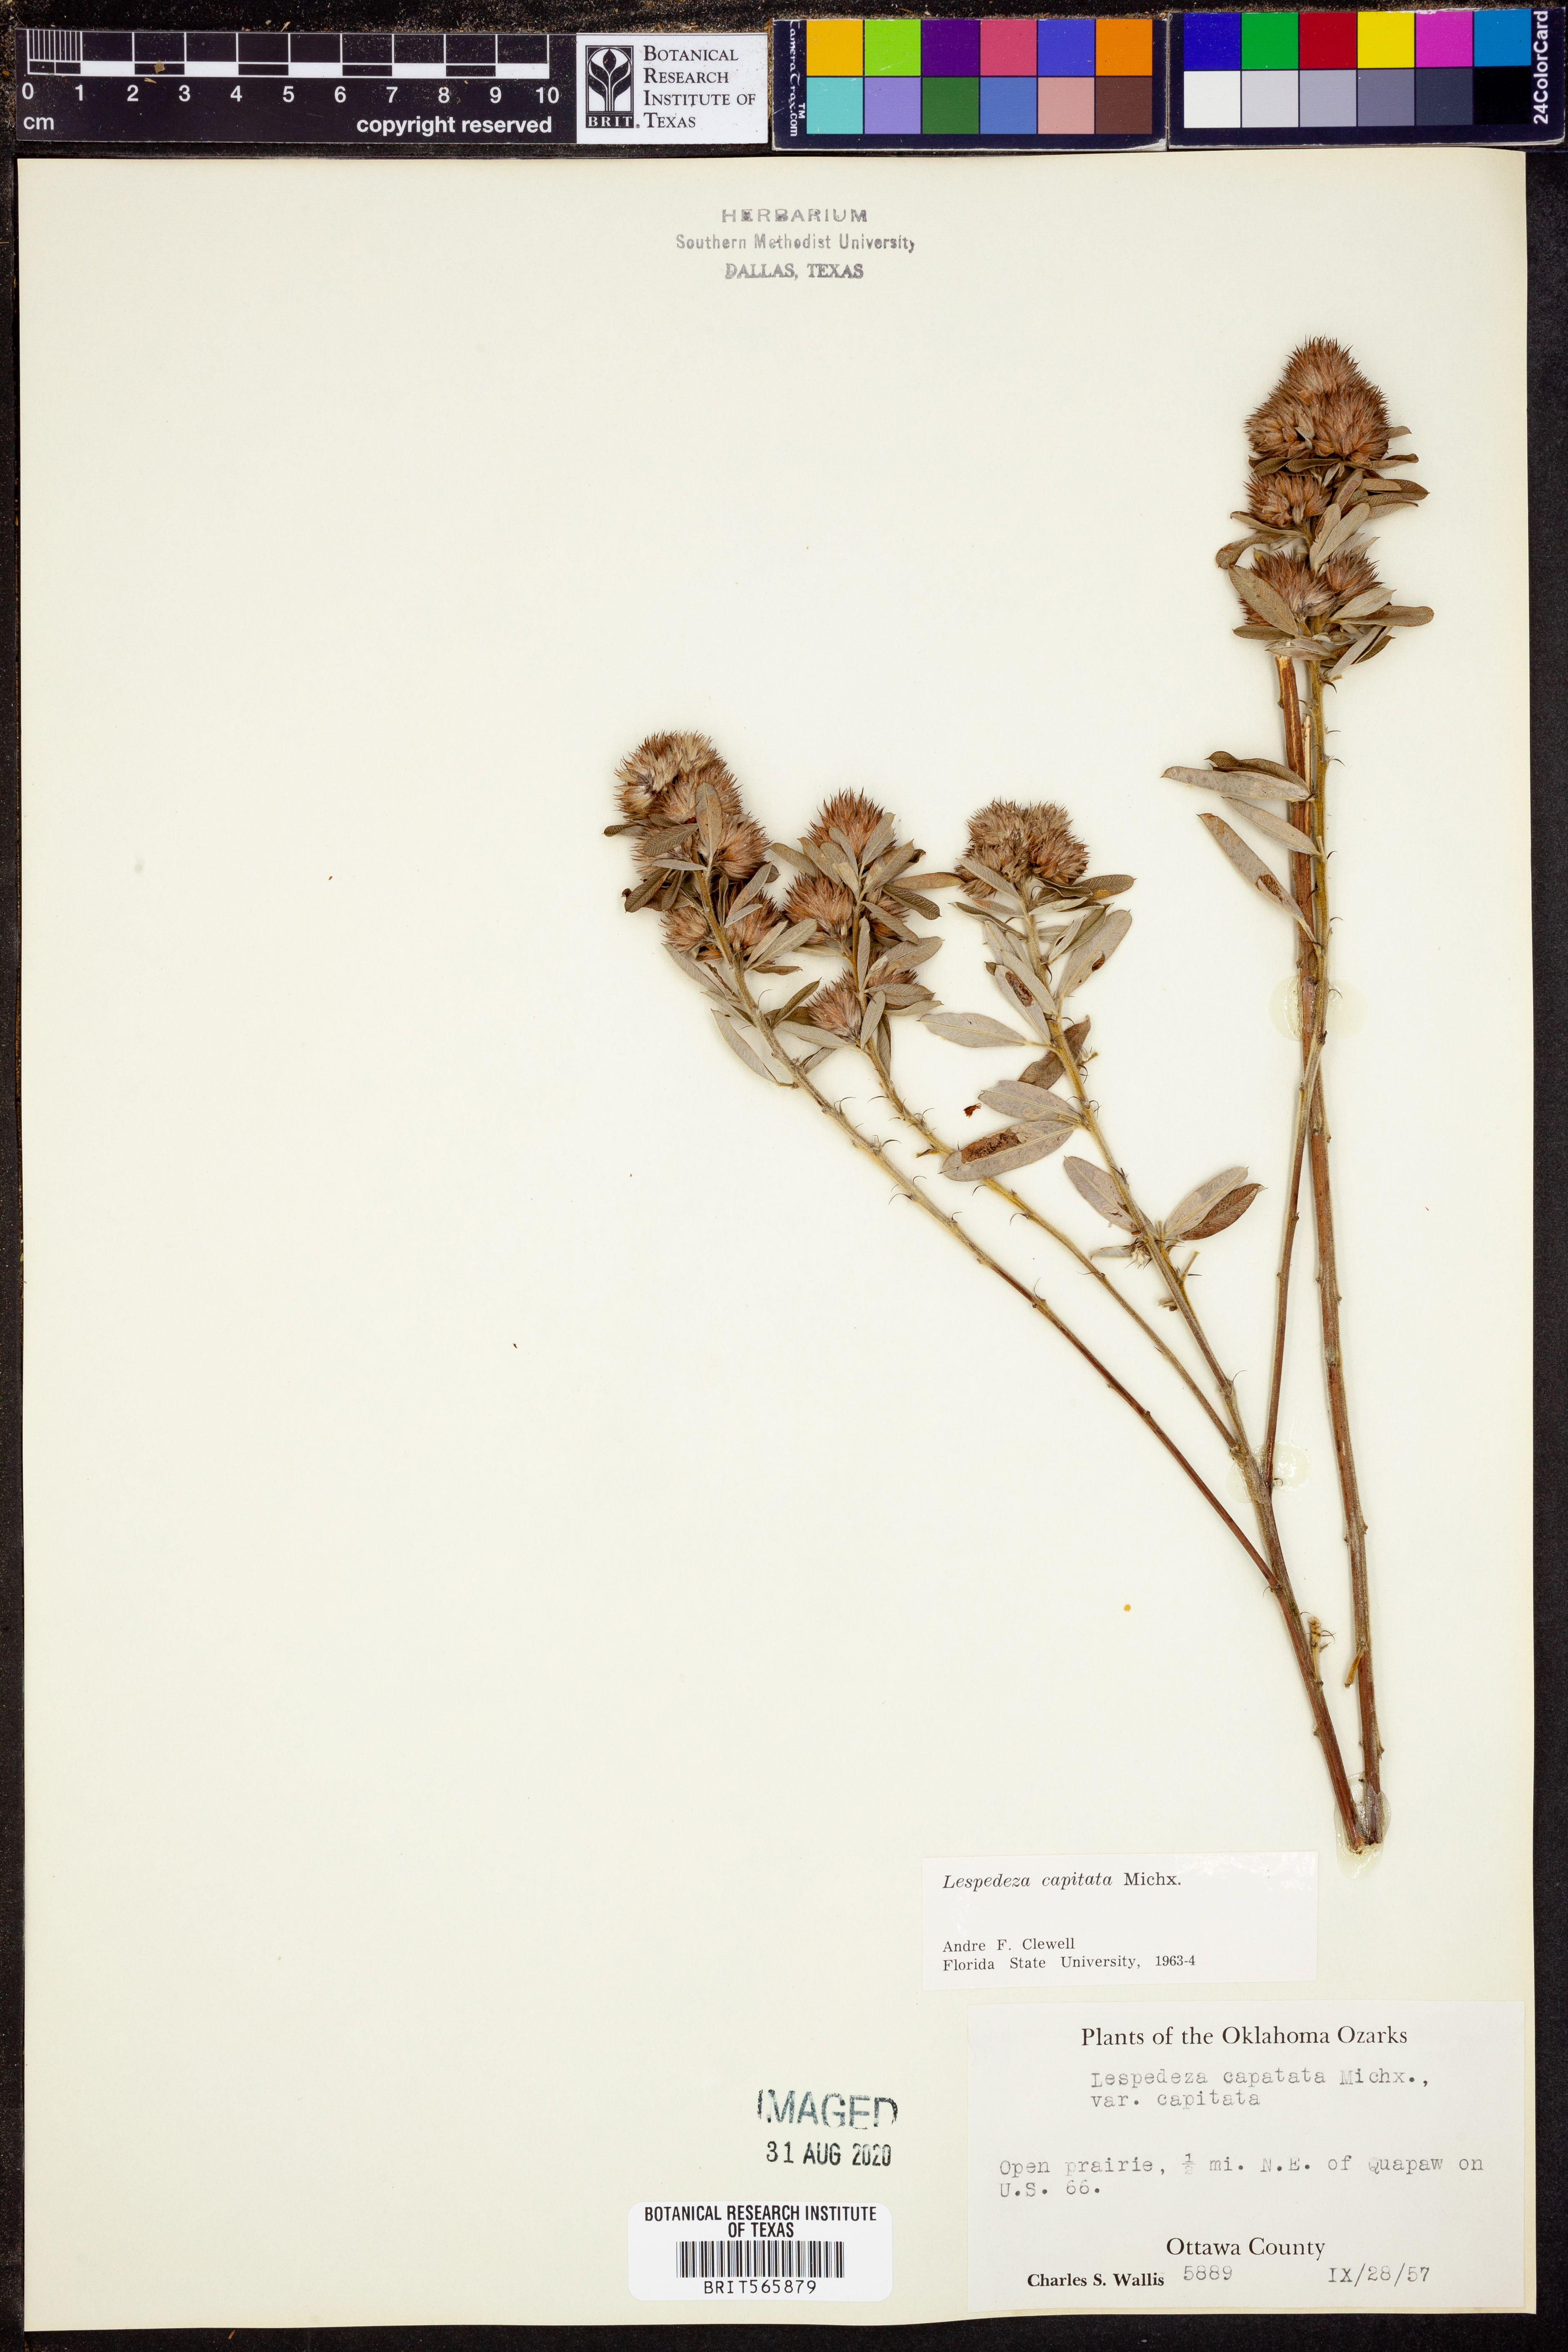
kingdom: Plantae
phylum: Tracheophyta
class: Magnoliopsida
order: Fabales
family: Fabaceae
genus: Lespedeza
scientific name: Lespedeza capitata
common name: Dusty clover
